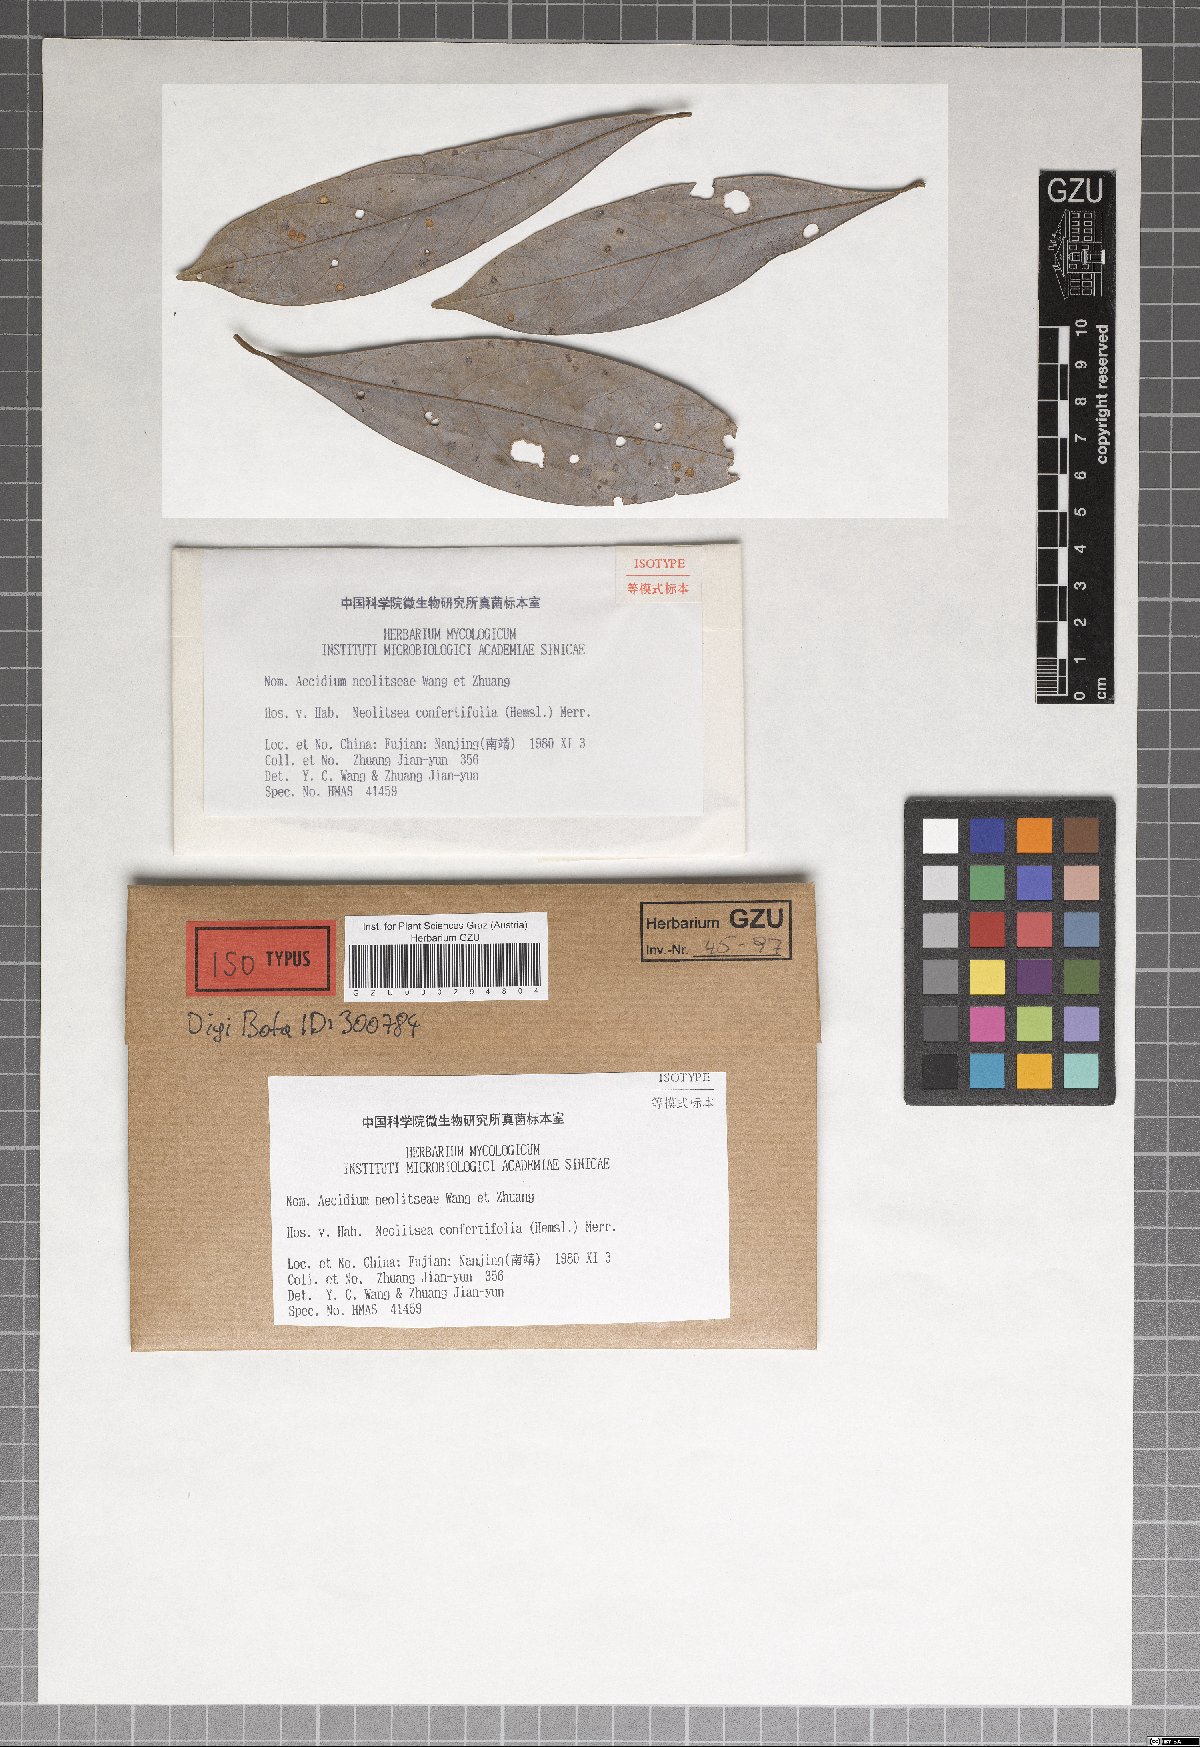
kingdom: Fungi
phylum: Basidiomycota
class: Pucciniomycetes
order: Pucciniales
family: Pucciniaceae
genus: Aecidium
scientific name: Aecidium neolitseae
